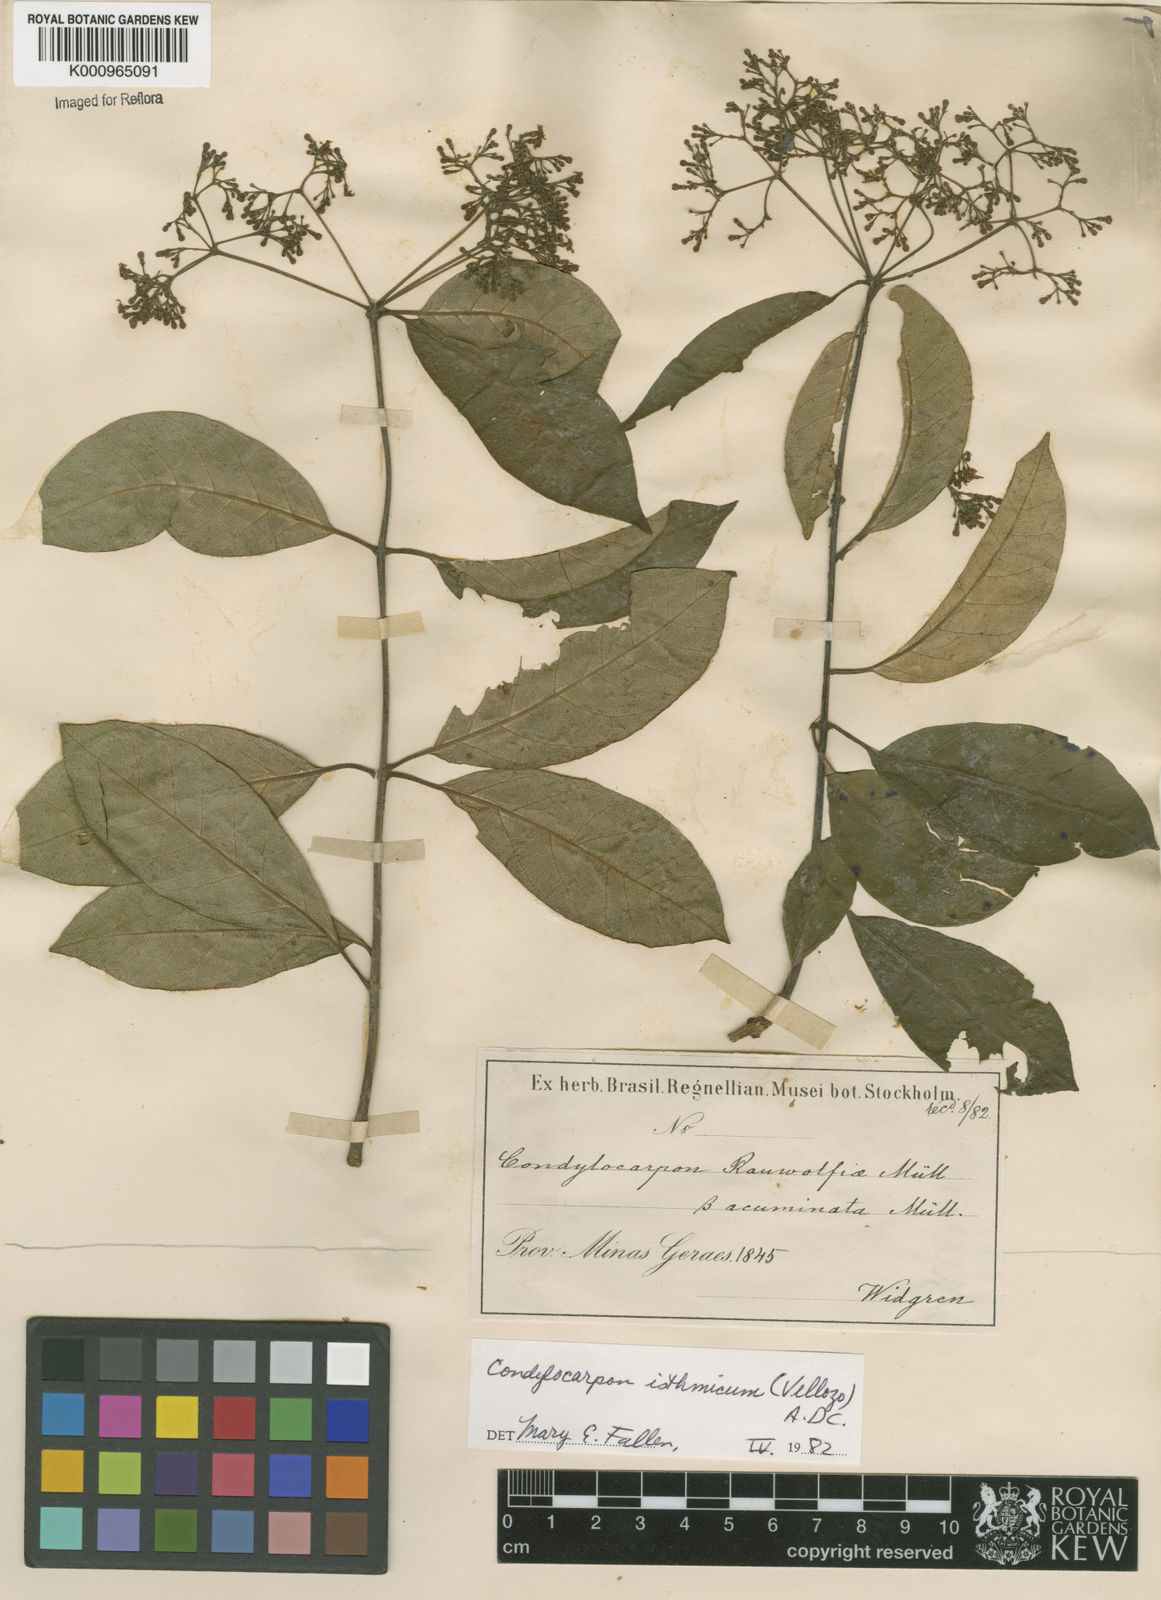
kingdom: Plantae
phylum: Tracheophyta
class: Magnoliopsida
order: Gentianales
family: Apocynaceae
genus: Condylocarpon
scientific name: Condylocarpon isthmicum
